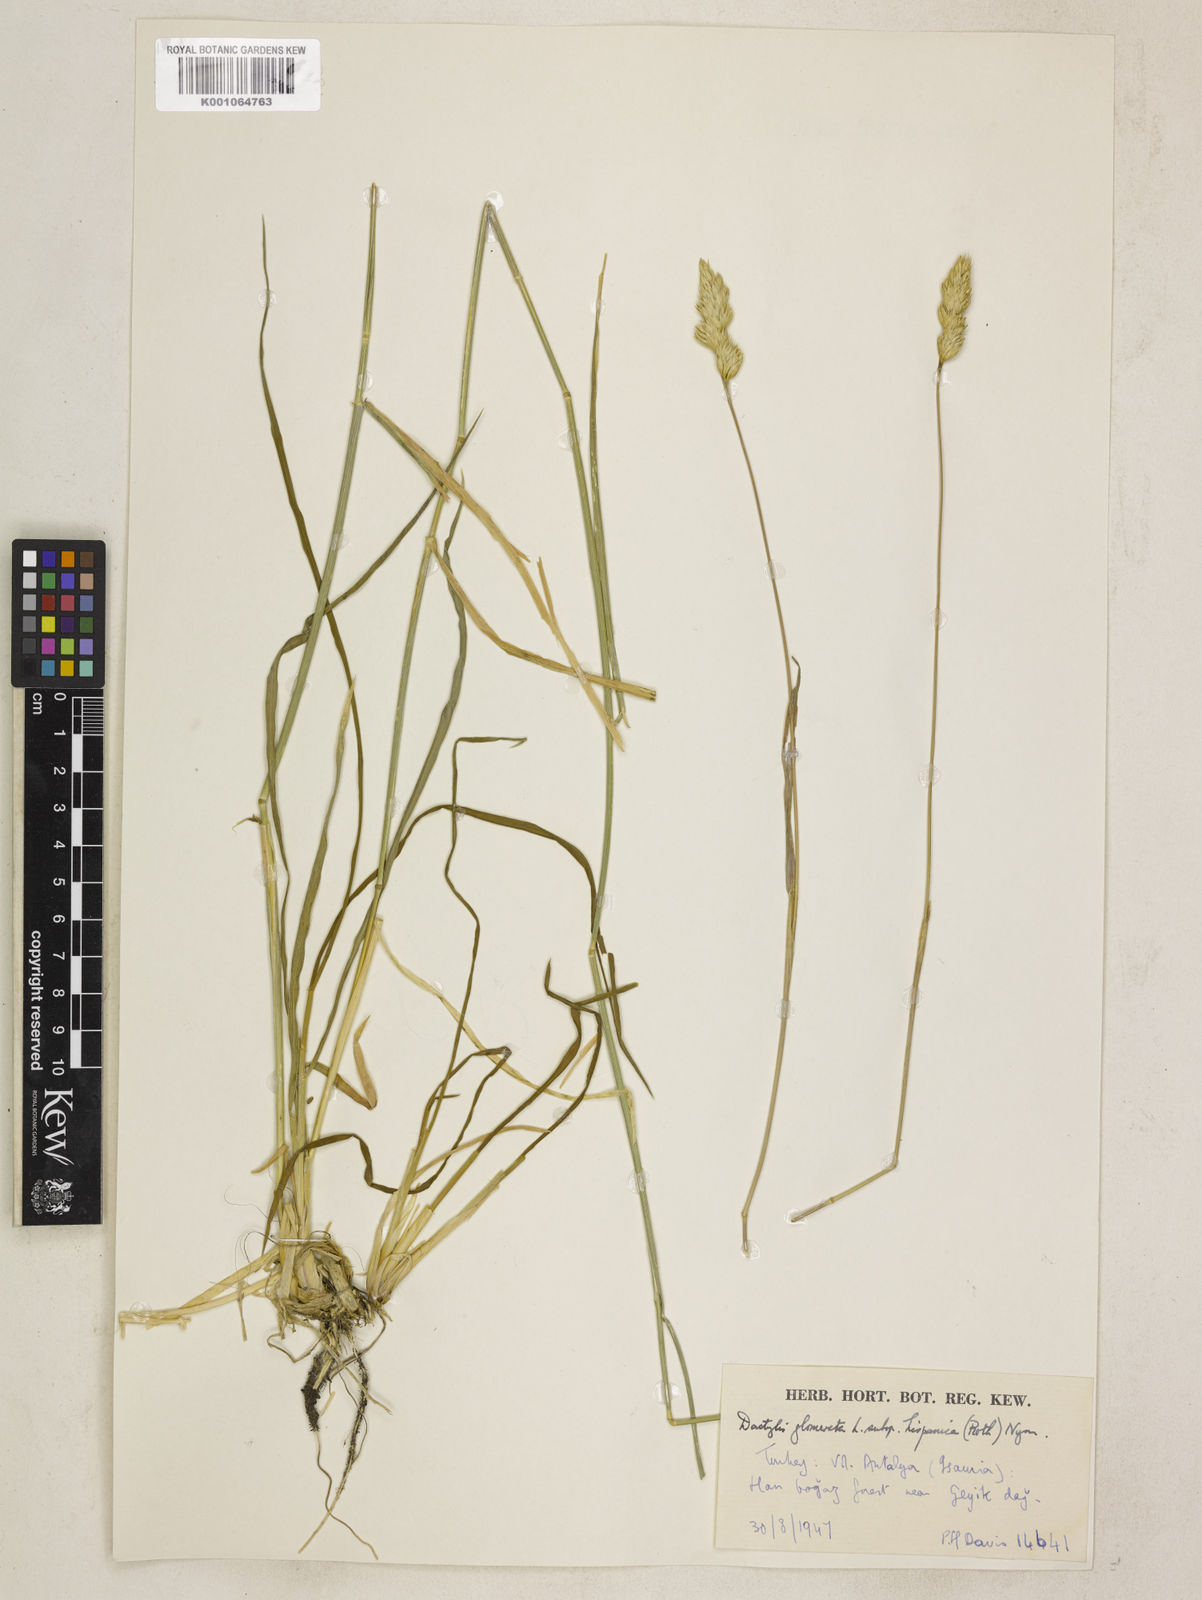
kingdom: Plantae
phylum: Tracheophyta
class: Liliopsida
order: Poales
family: Poaceae
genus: Dactylis
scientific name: Dactylis glomerata
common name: Orchardgrass
